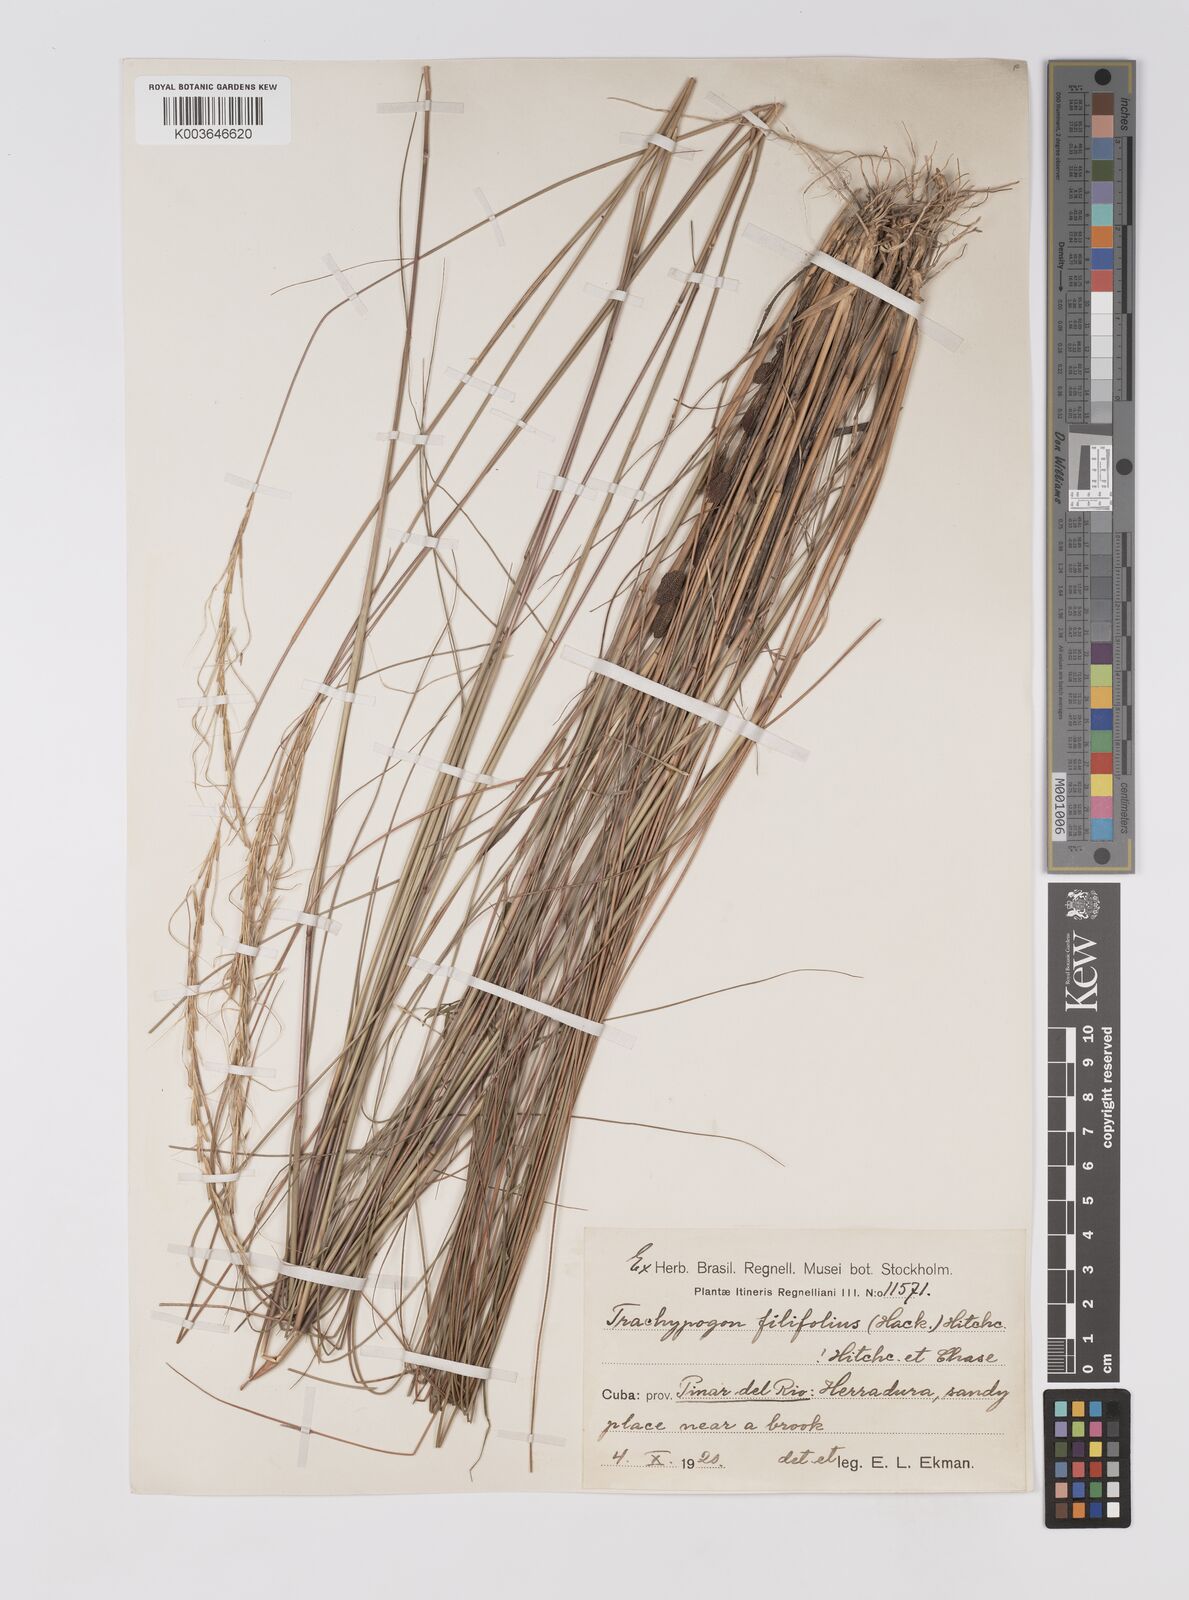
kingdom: Plantae
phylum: Tracheophyta
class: Liliopsida
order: Poales
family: Poaceae
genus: Trachypogon
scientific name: Trachypogon macroglossus
